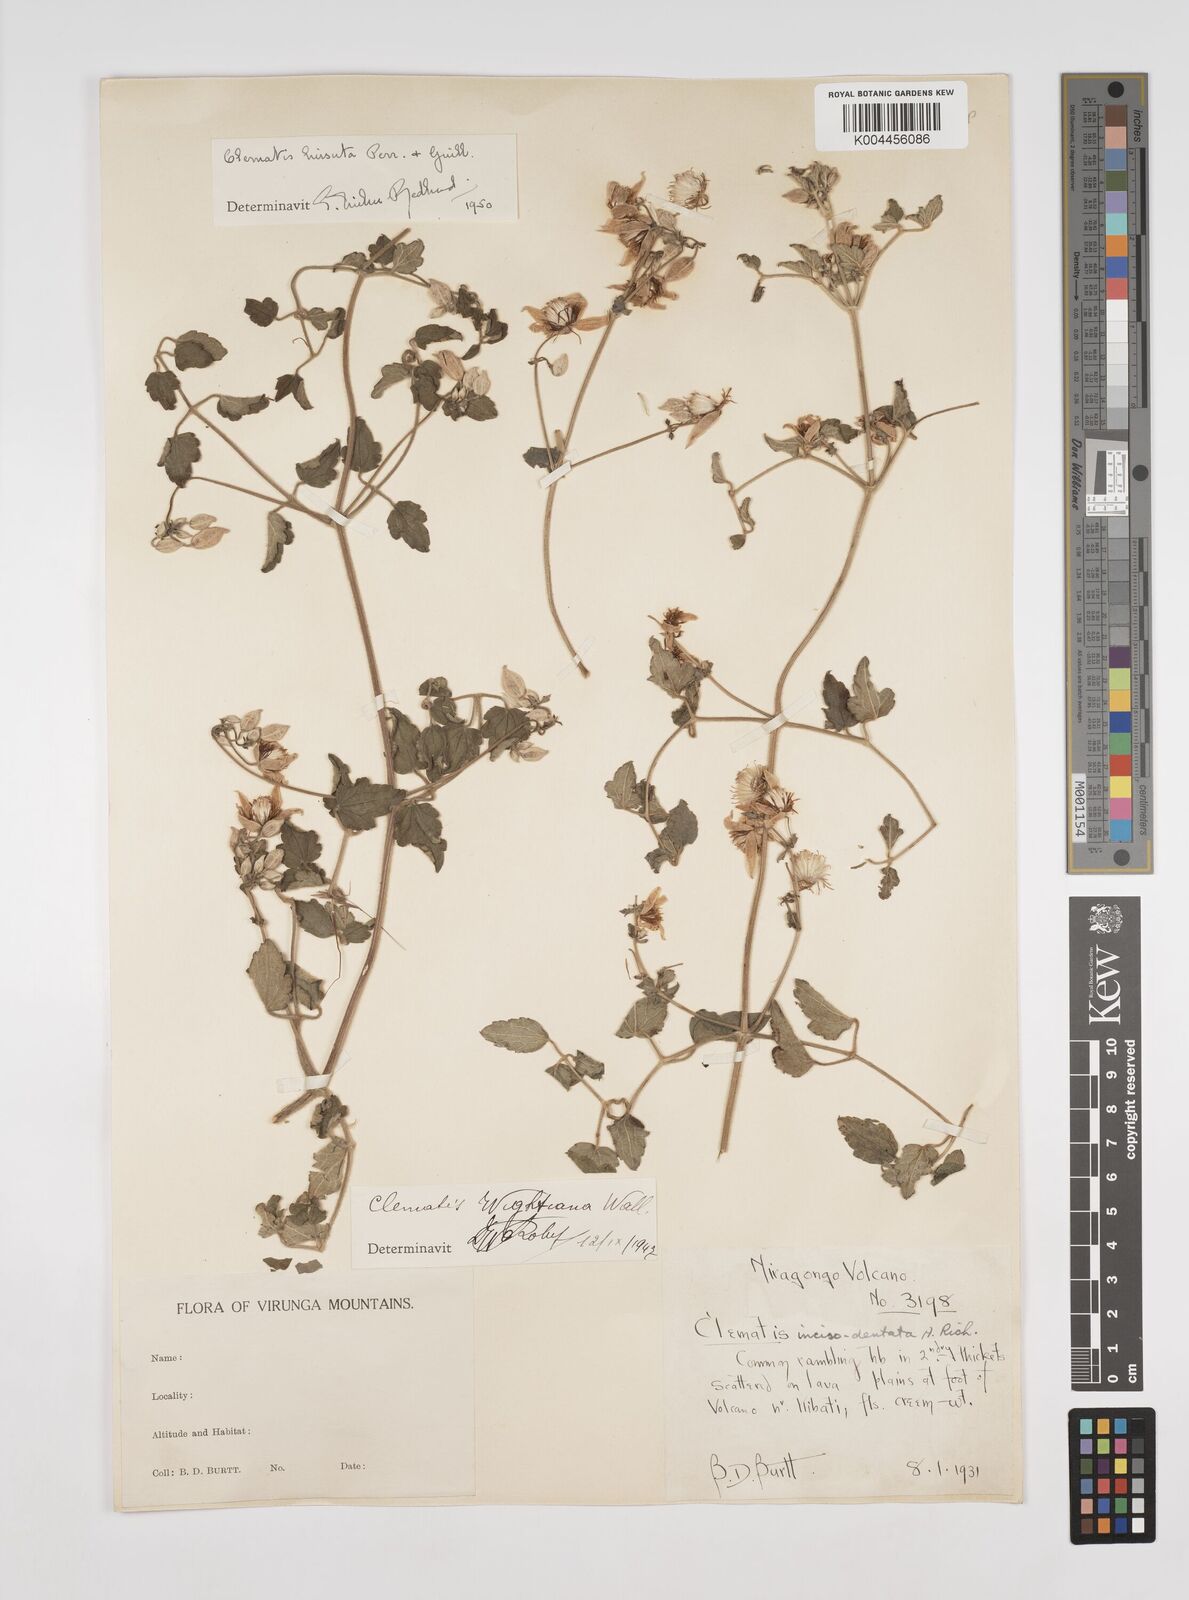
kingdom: Plantae
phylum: Tracheophyta
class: Magnoliopsida
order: Ranunculales
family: Ranunculaceae
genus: Clematis
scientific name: Clematis orientalis
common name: Oriental virgin's-bower
